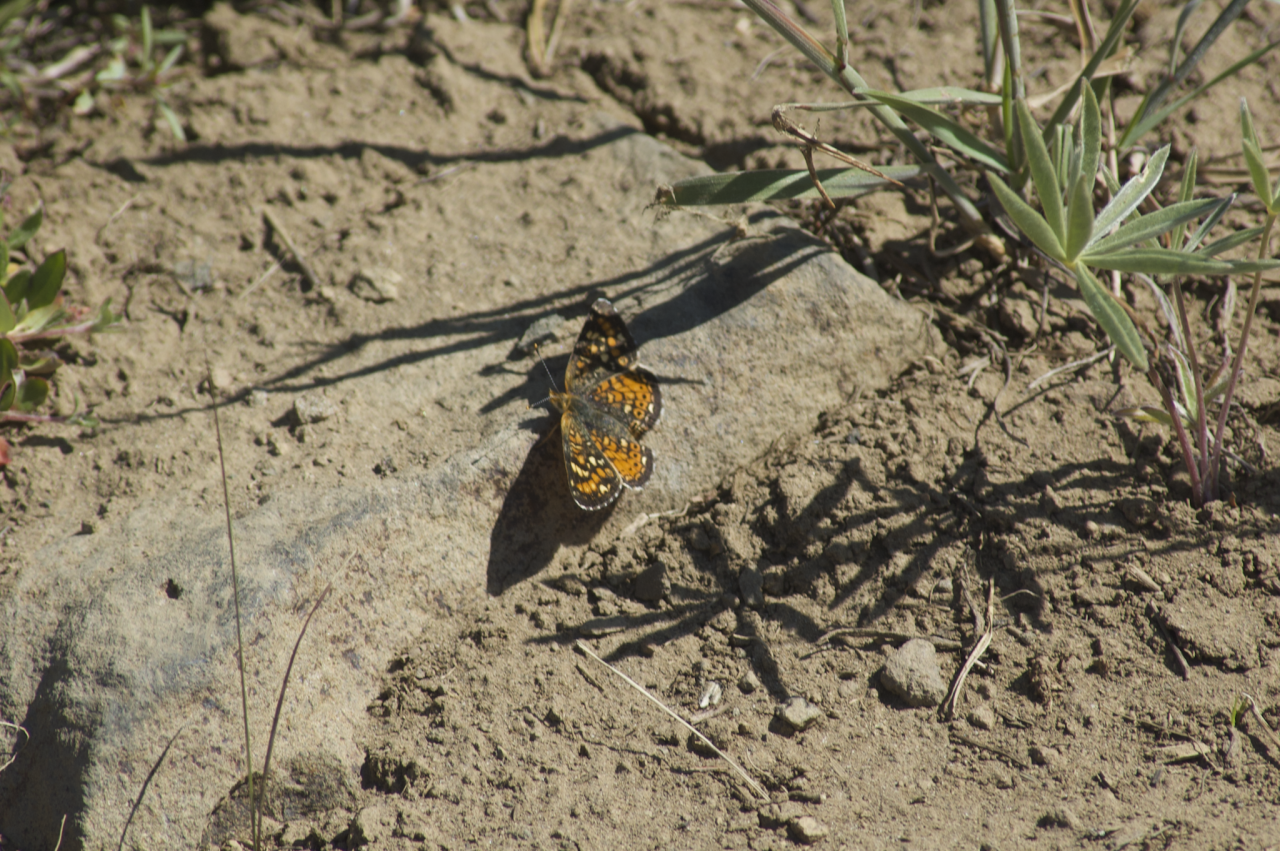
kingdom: Animalia
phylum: Arthropoda
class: Insecta
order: Lepidoptera
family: Nymphalidae
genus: Phyciodes
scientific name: Phyciodes tharos
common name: Field Crescent
